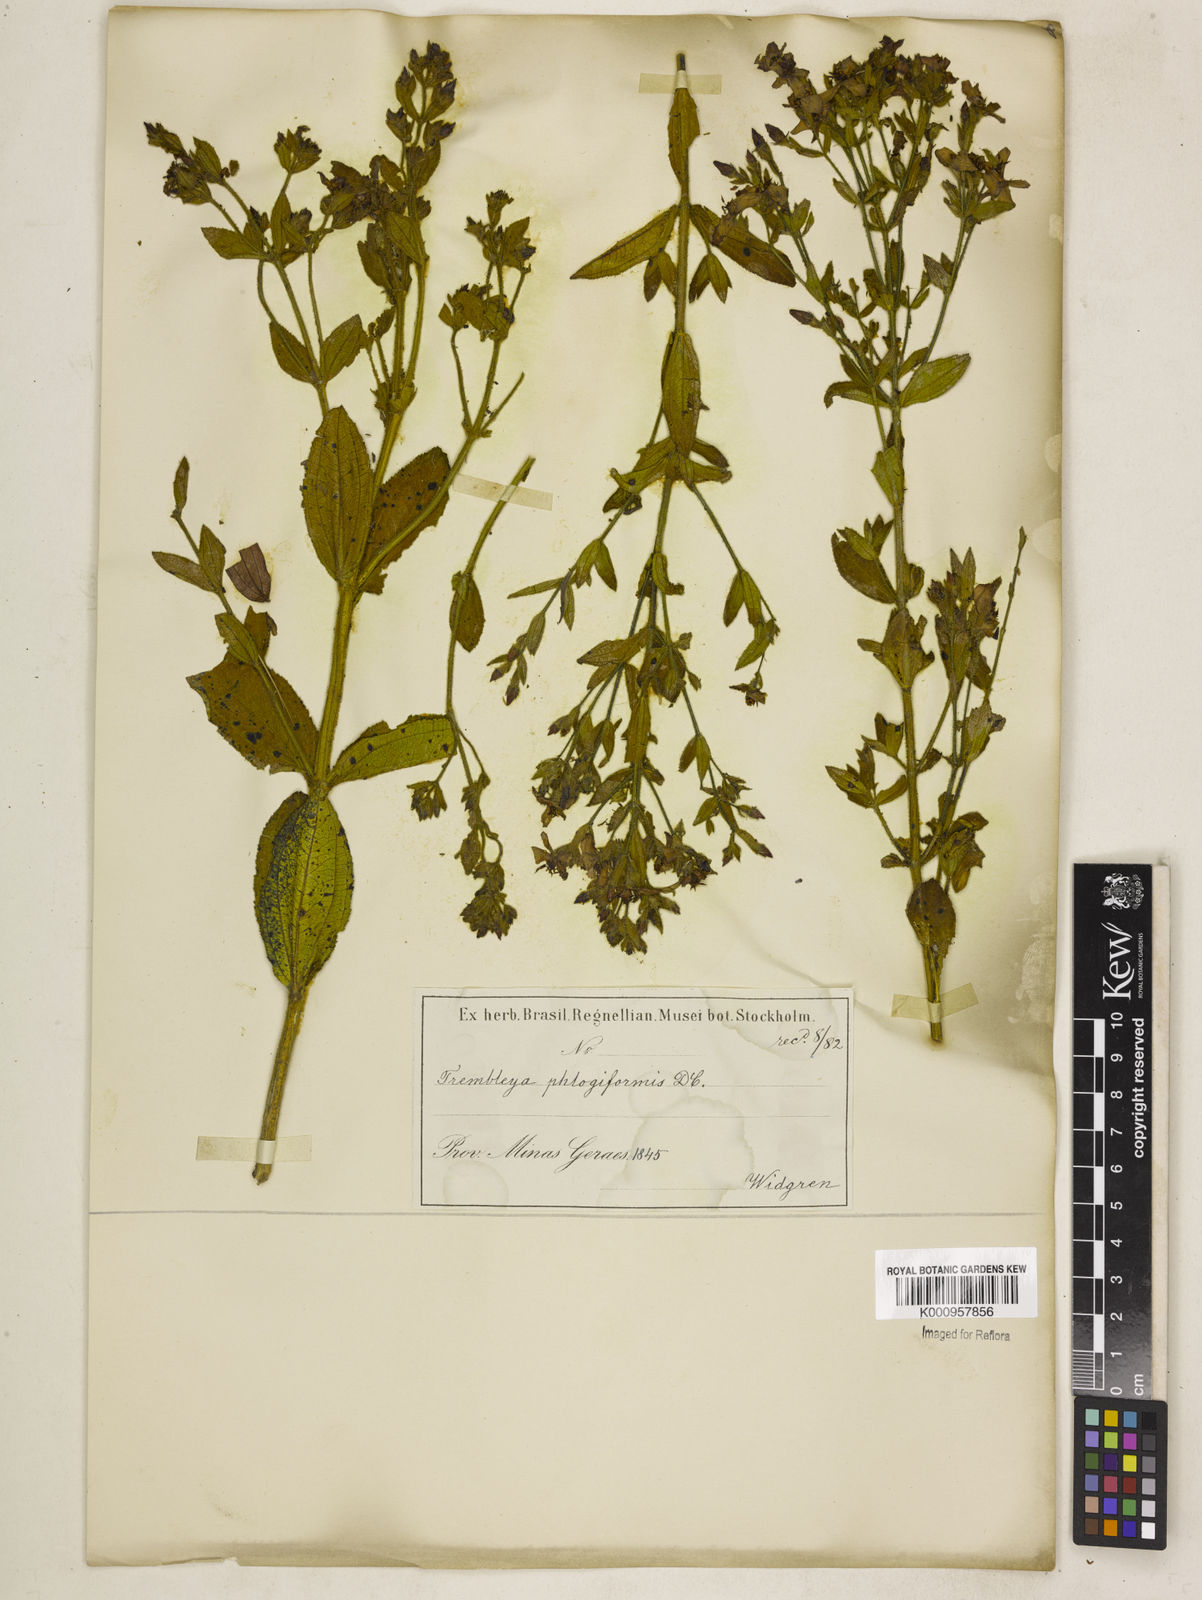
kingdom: Plantae
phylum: Tracheophyta
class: Magnoliopsida
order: Myrtales
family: Melastomataceae
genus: Microlicia
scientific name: Microlicia phlogiformis
